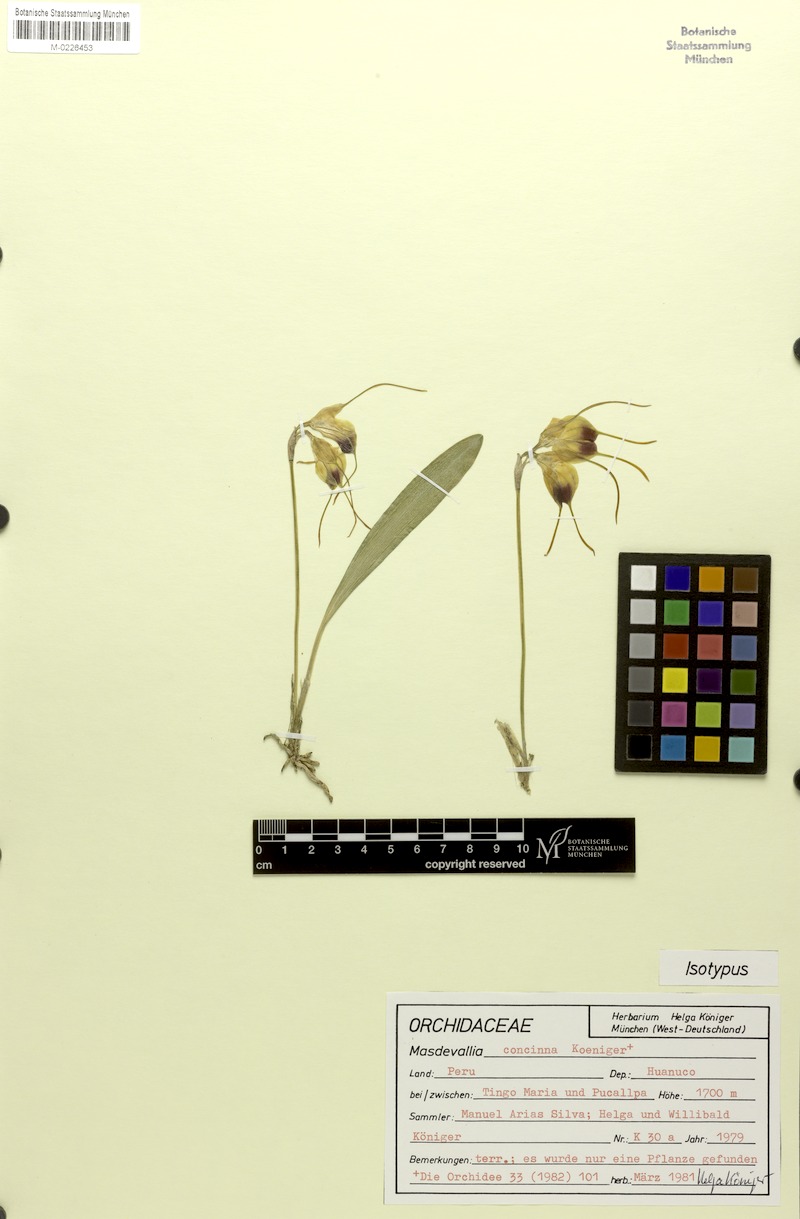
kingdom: Plantae
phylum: Tracheophyta
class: Liliopsida
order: Asparagales
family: Orchidaceae
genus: Masdevallia
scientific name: Masdevallia concinna
